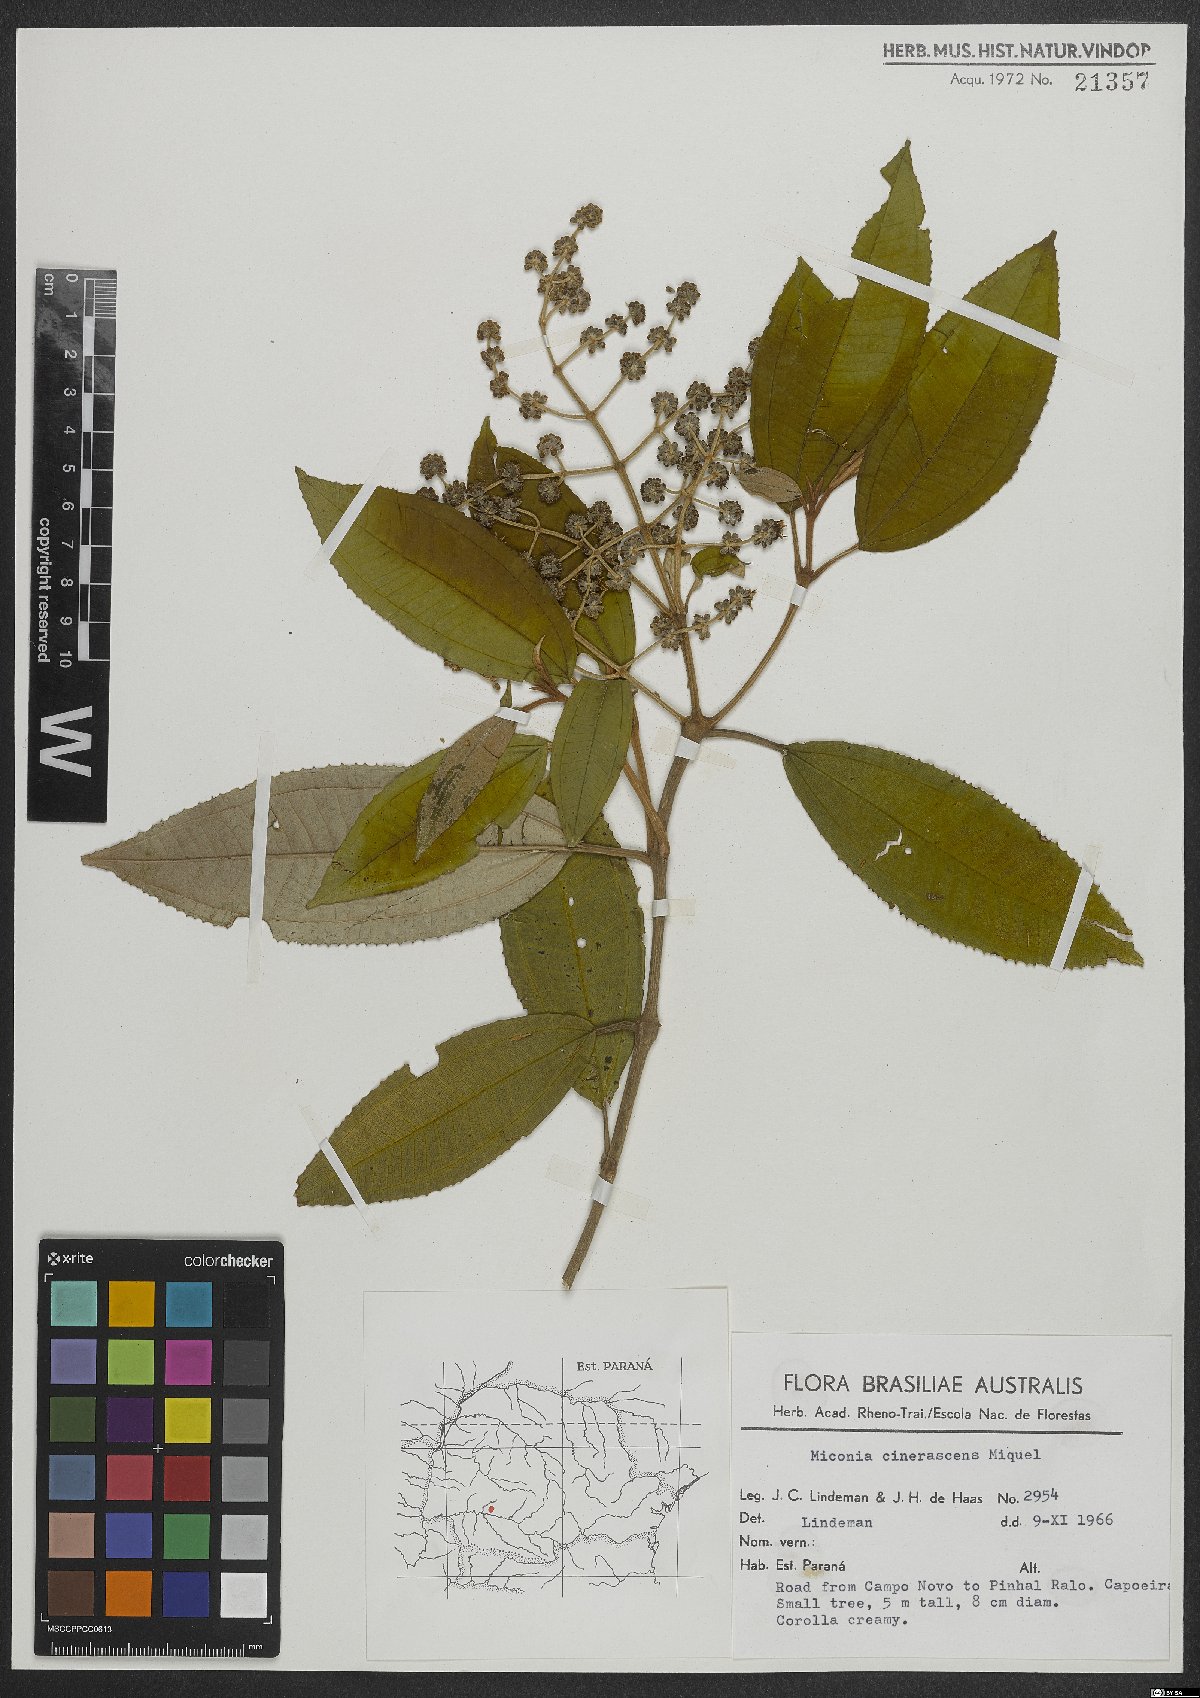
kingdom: Plantae
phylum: Tracheophyta
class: Magnoliopsida
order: Myrtales
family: Melastomataceae
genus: Miconia
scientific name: Miconia cinerascens
